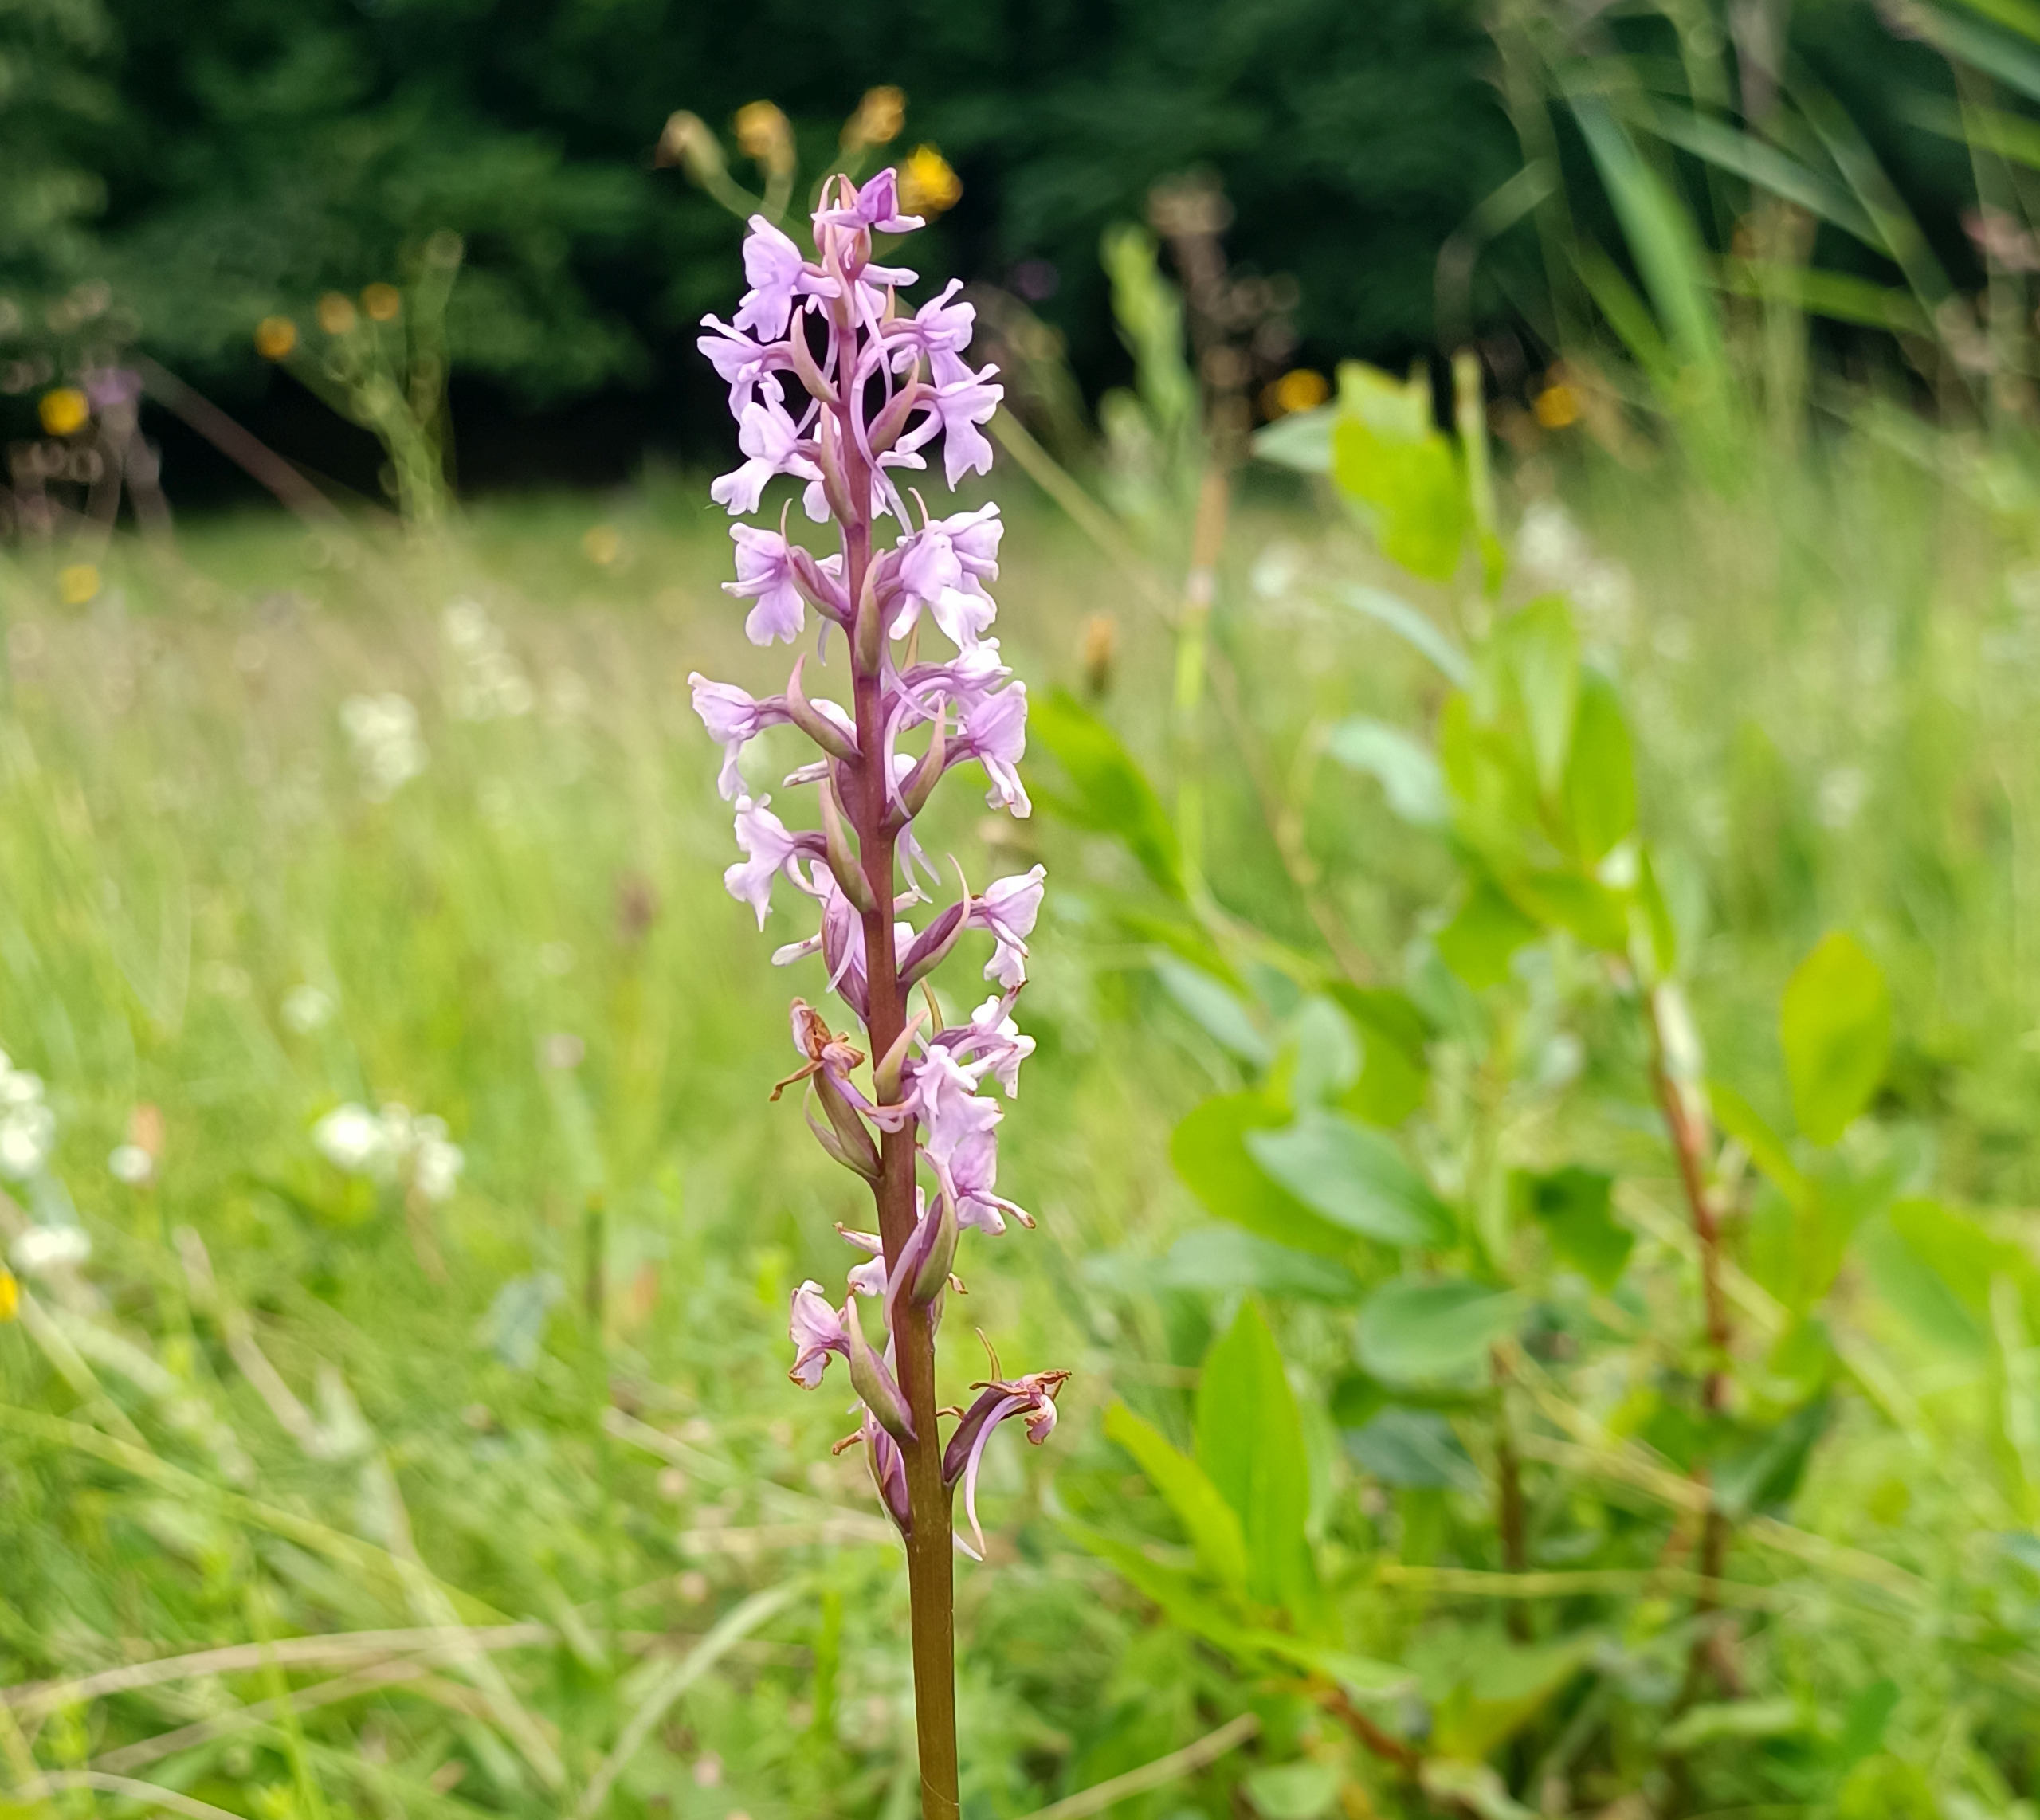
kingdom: Plantae
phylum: Tracheophyta
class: Liliopsida
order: Asparagales
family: Orchidaceae
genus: Gymnadenia
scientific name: Gymnadenia conopsea
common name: Langakset trådspore
